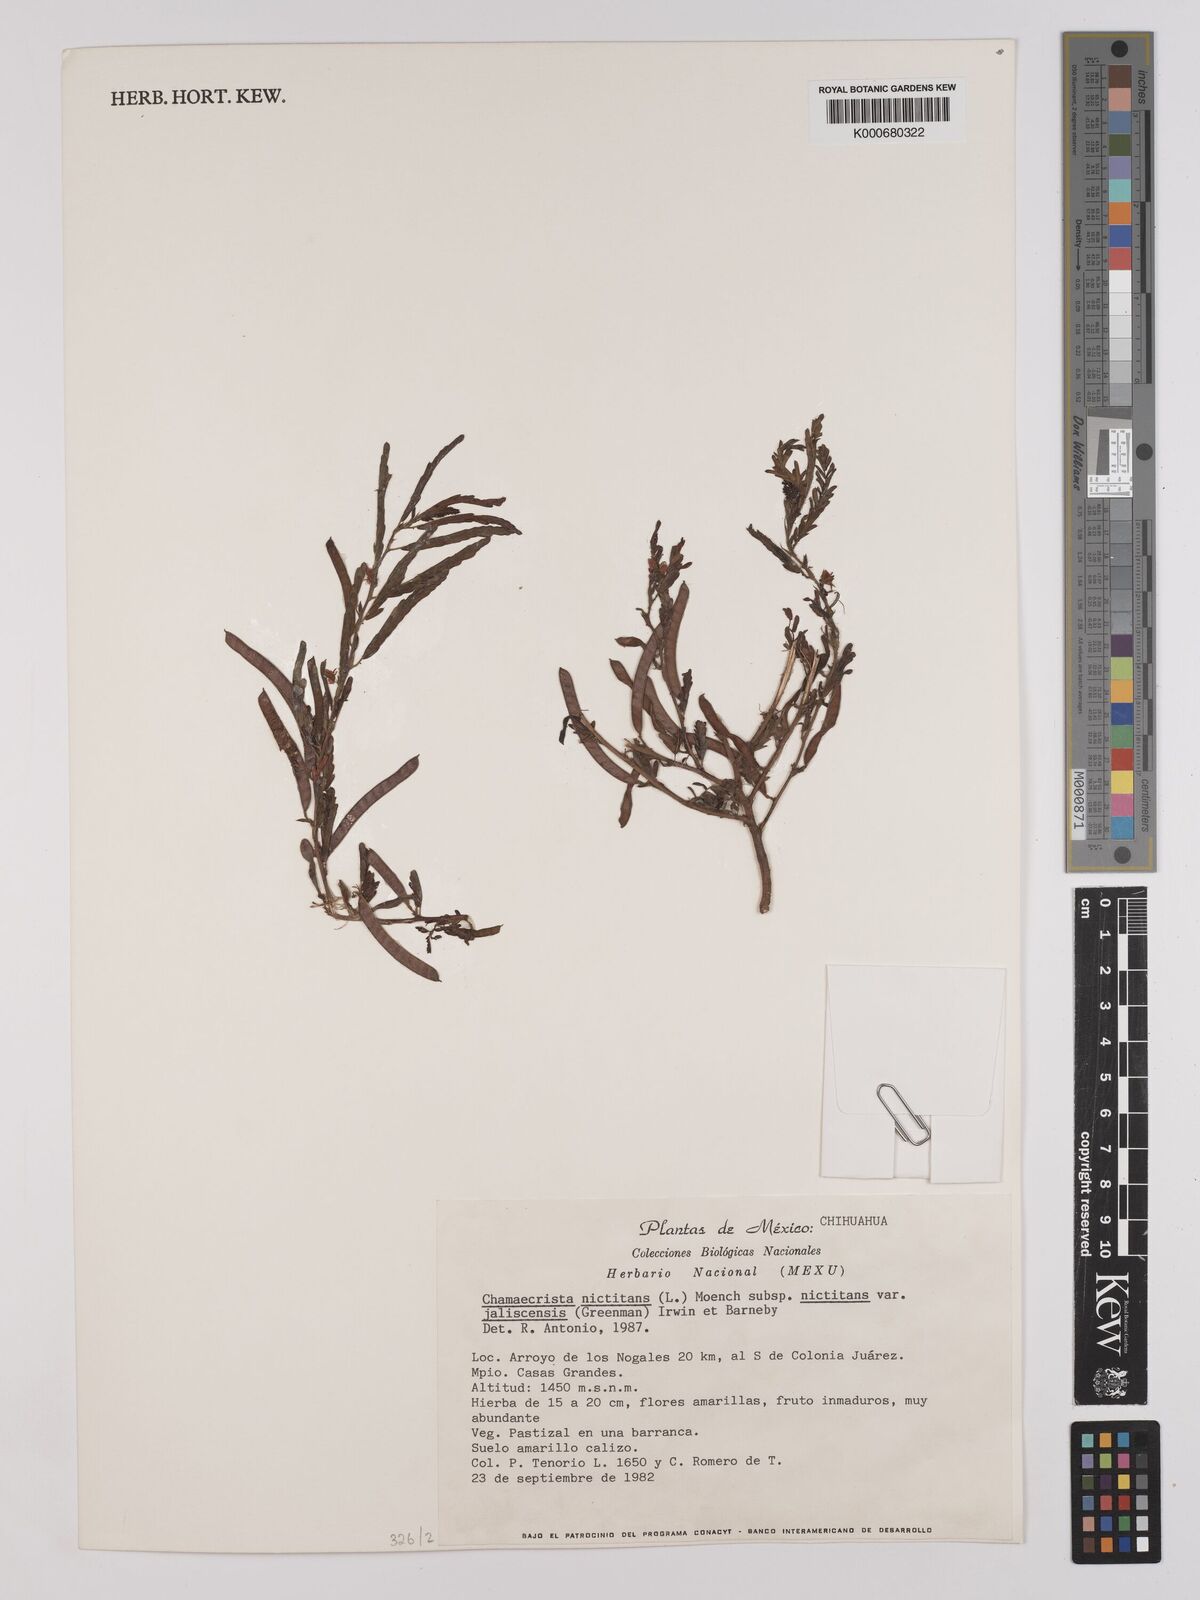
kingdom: Plantae
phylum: Tracheophyta
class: Magnoliopsida
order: Fabales
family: Fabaceae
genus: Chamaecrista
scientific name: Chamaecrista nictitans
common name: Sensitive cassia
